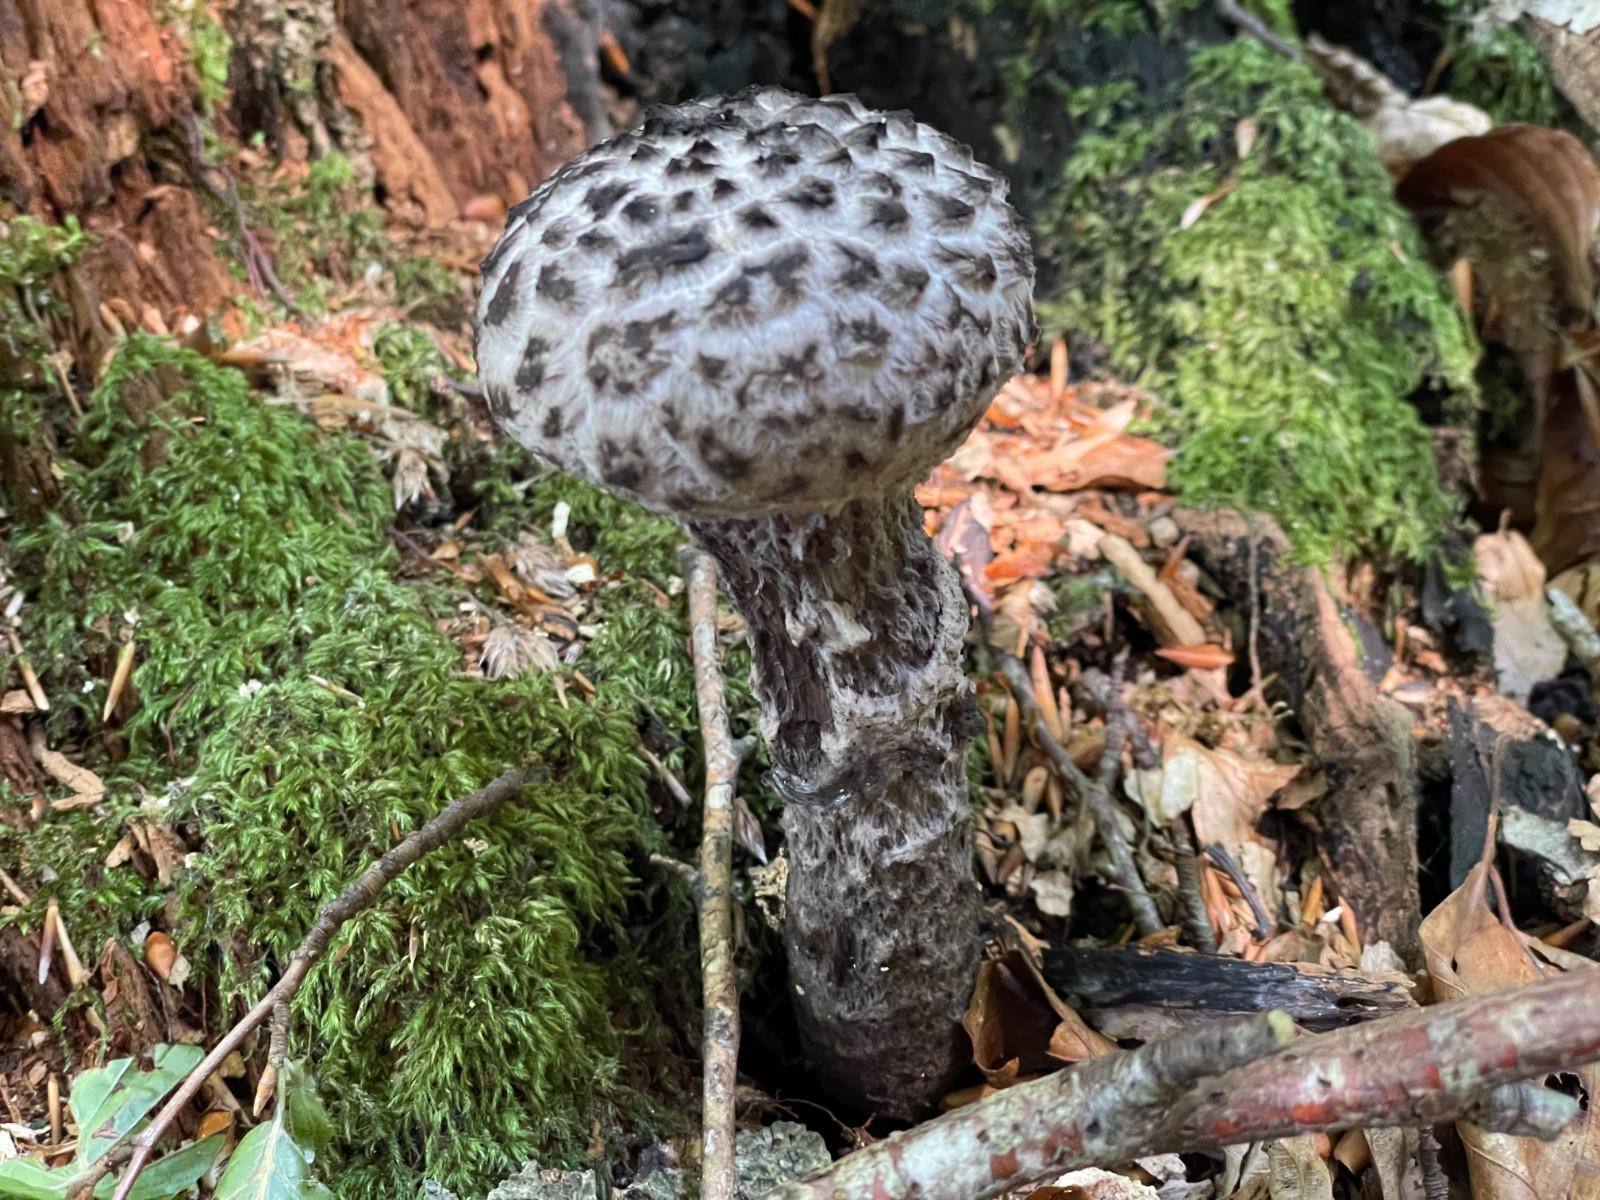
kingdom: Fungi
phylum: Basidiomycota
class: Agaricomycetes
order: Boletales
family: Boletaceae
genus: Strobilomyces
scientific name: Strobilomyces strobilaceus
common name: koglerørhat
